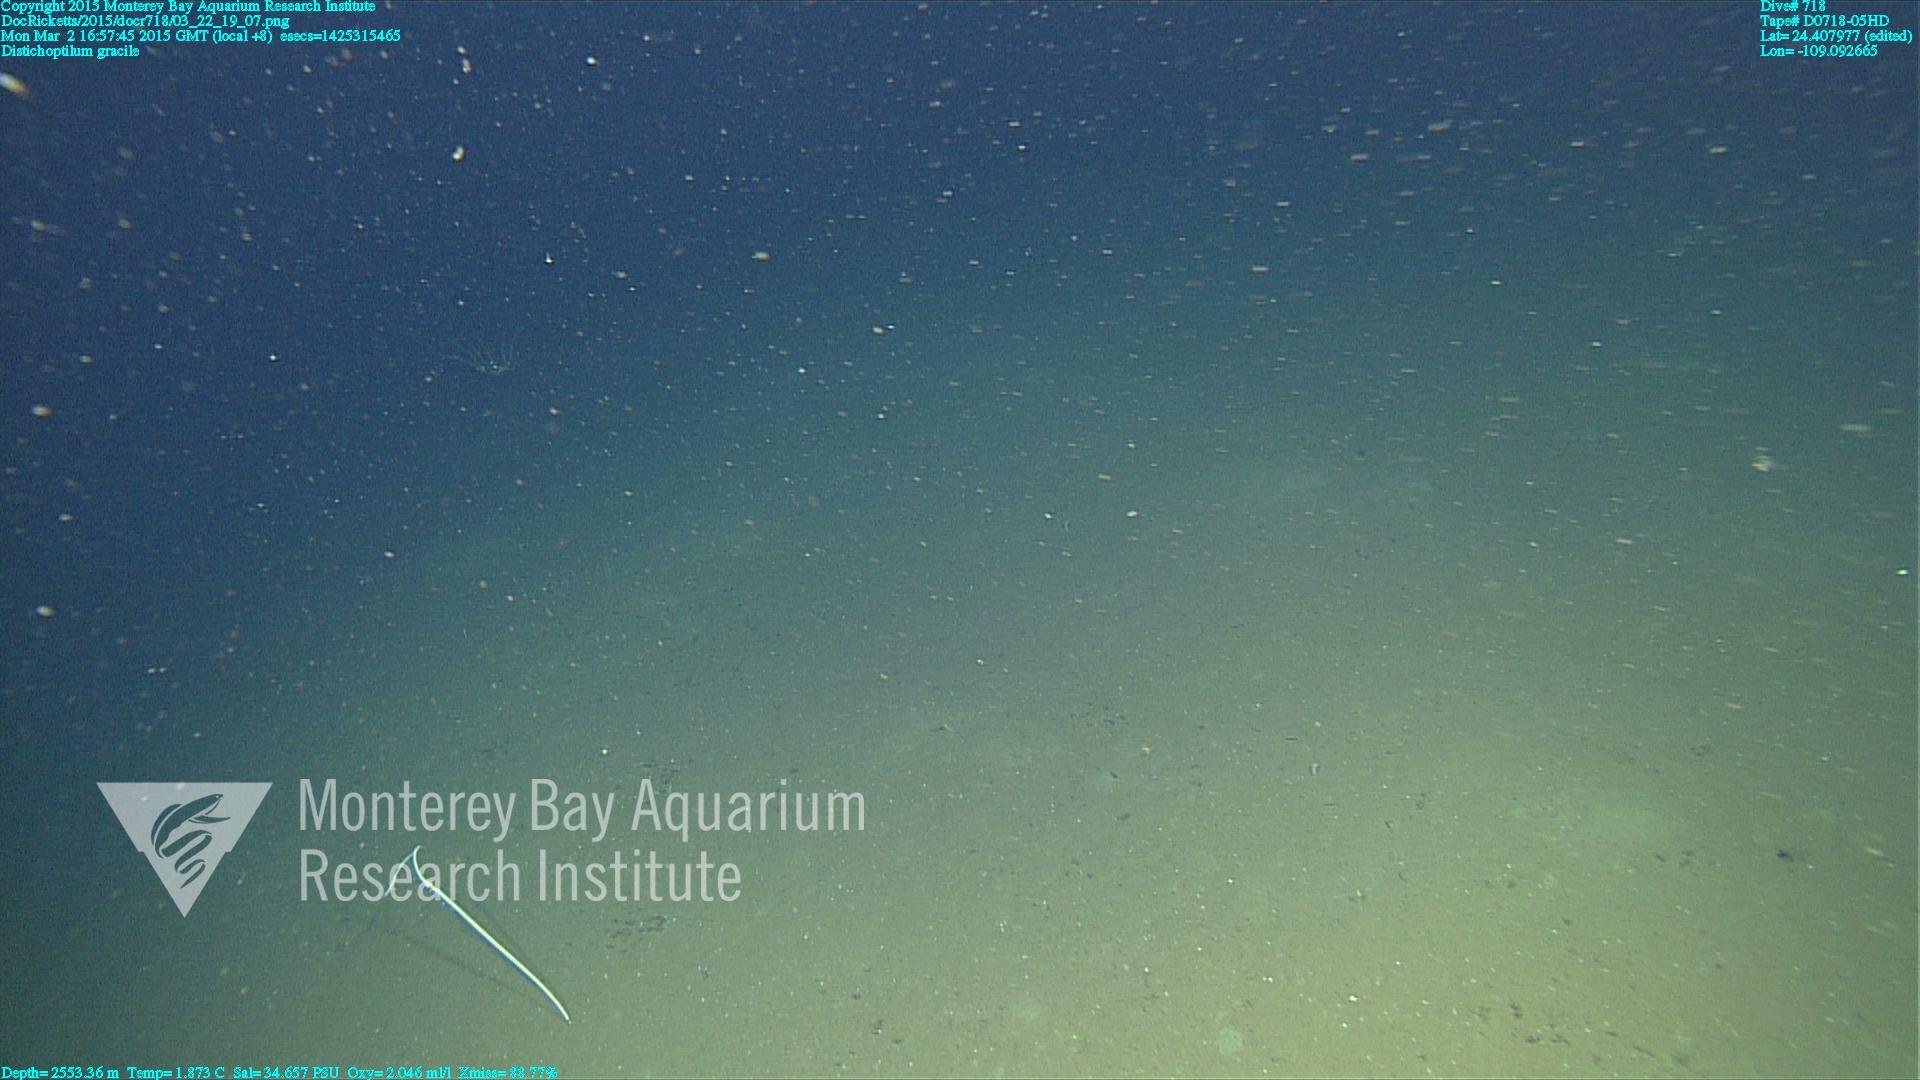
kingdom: Animalia
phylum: Cnidaria
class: Anthozoa
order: Scleralcyonacea
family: Protoptilidae
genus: Distichoptilum
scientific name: Distichoptilum gracile
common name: Slender sea pen
